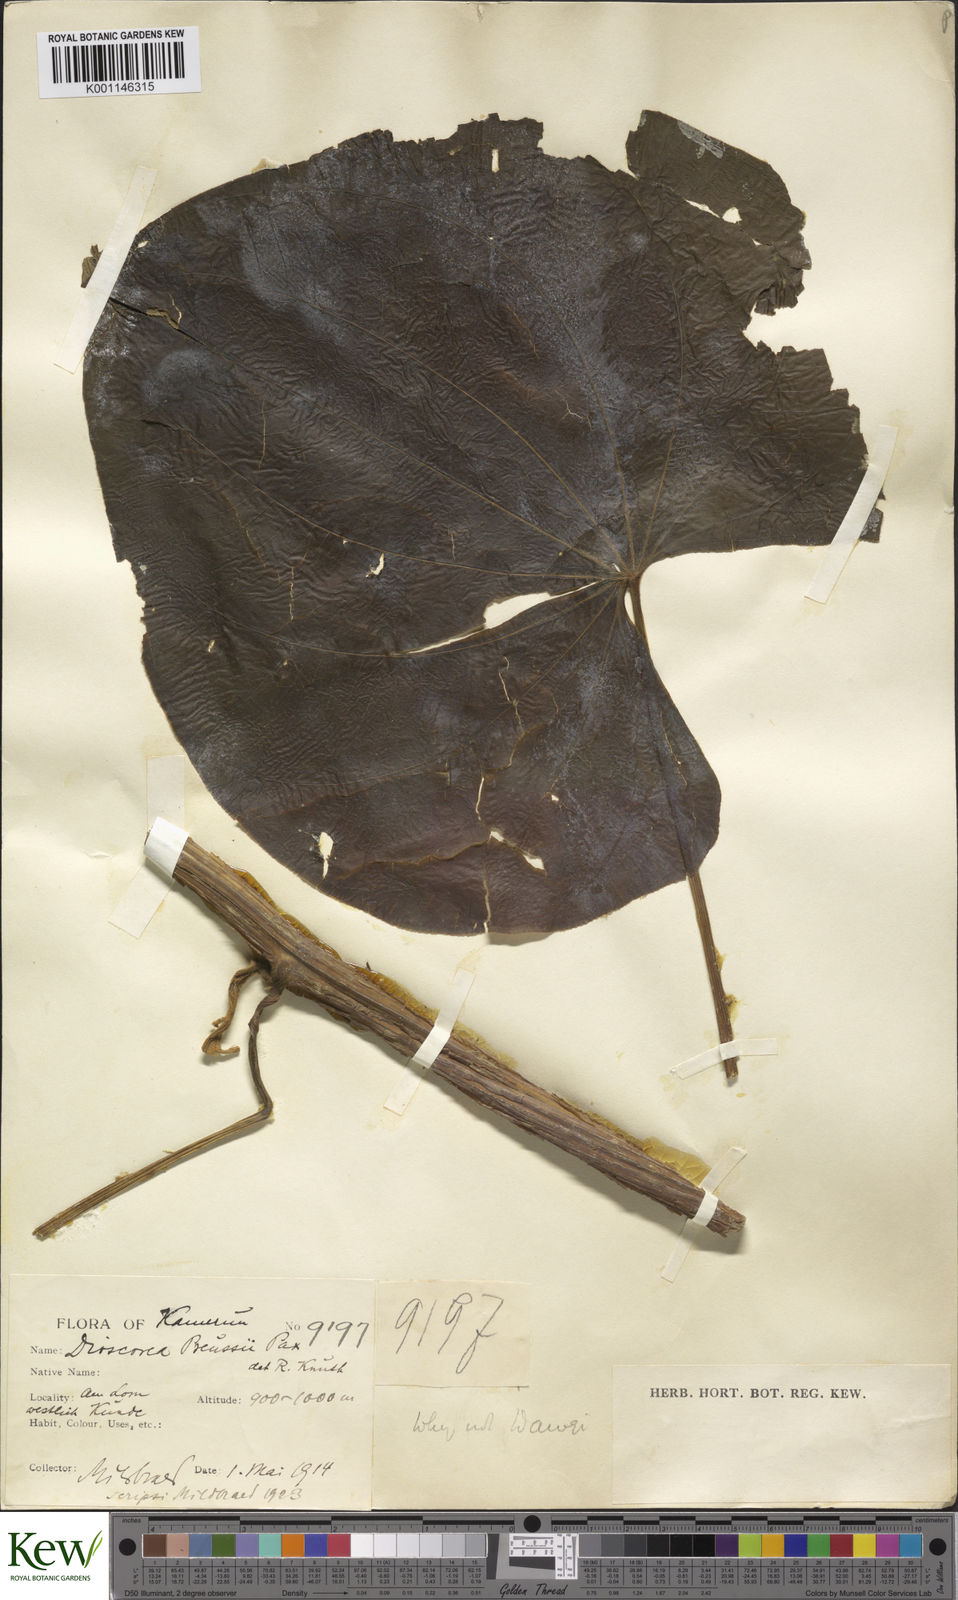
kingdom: Plantae
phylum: Tracheophyta
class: Liliopsida
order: Dioscoreales
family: Dioscoreaceae
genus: Dioscorea
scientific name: Dioscorea preussii
